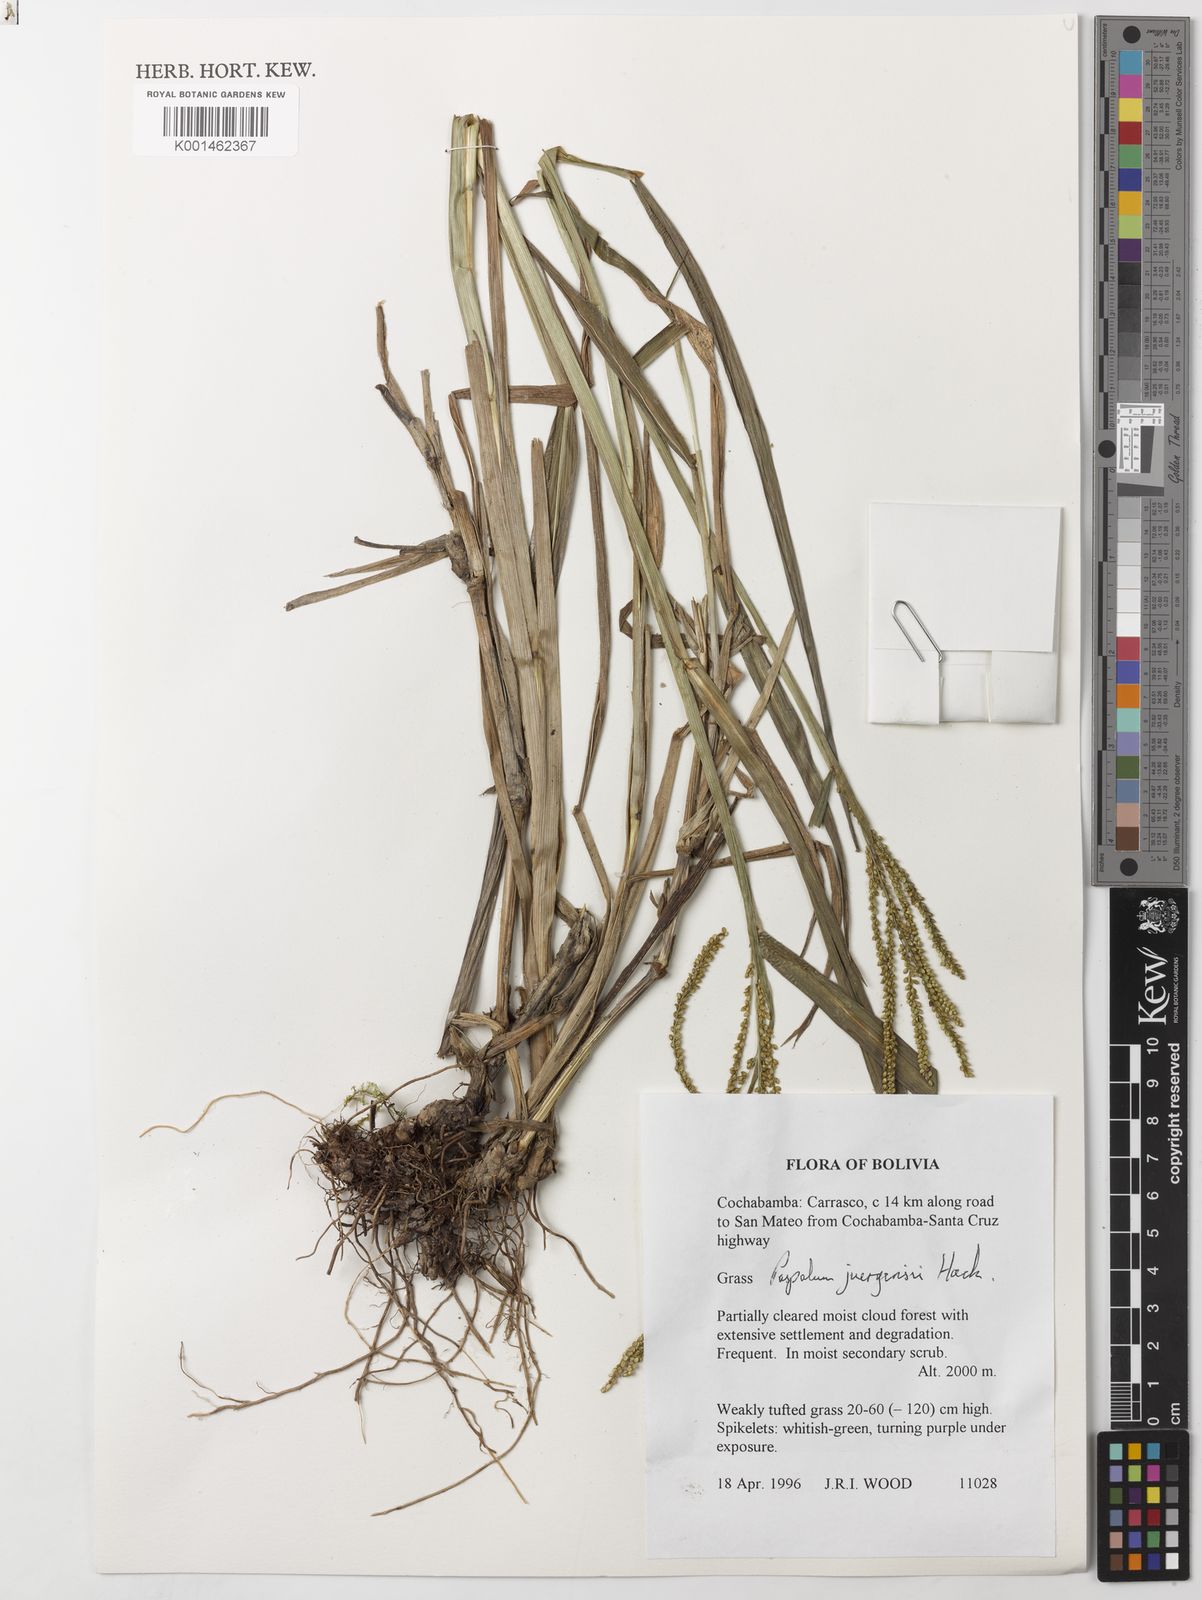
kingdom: Plantae
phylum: Tracheophyta
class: Liliopsida
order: Poales
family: Poaceae
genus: Paspalum
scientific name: Paspalum juergensii
